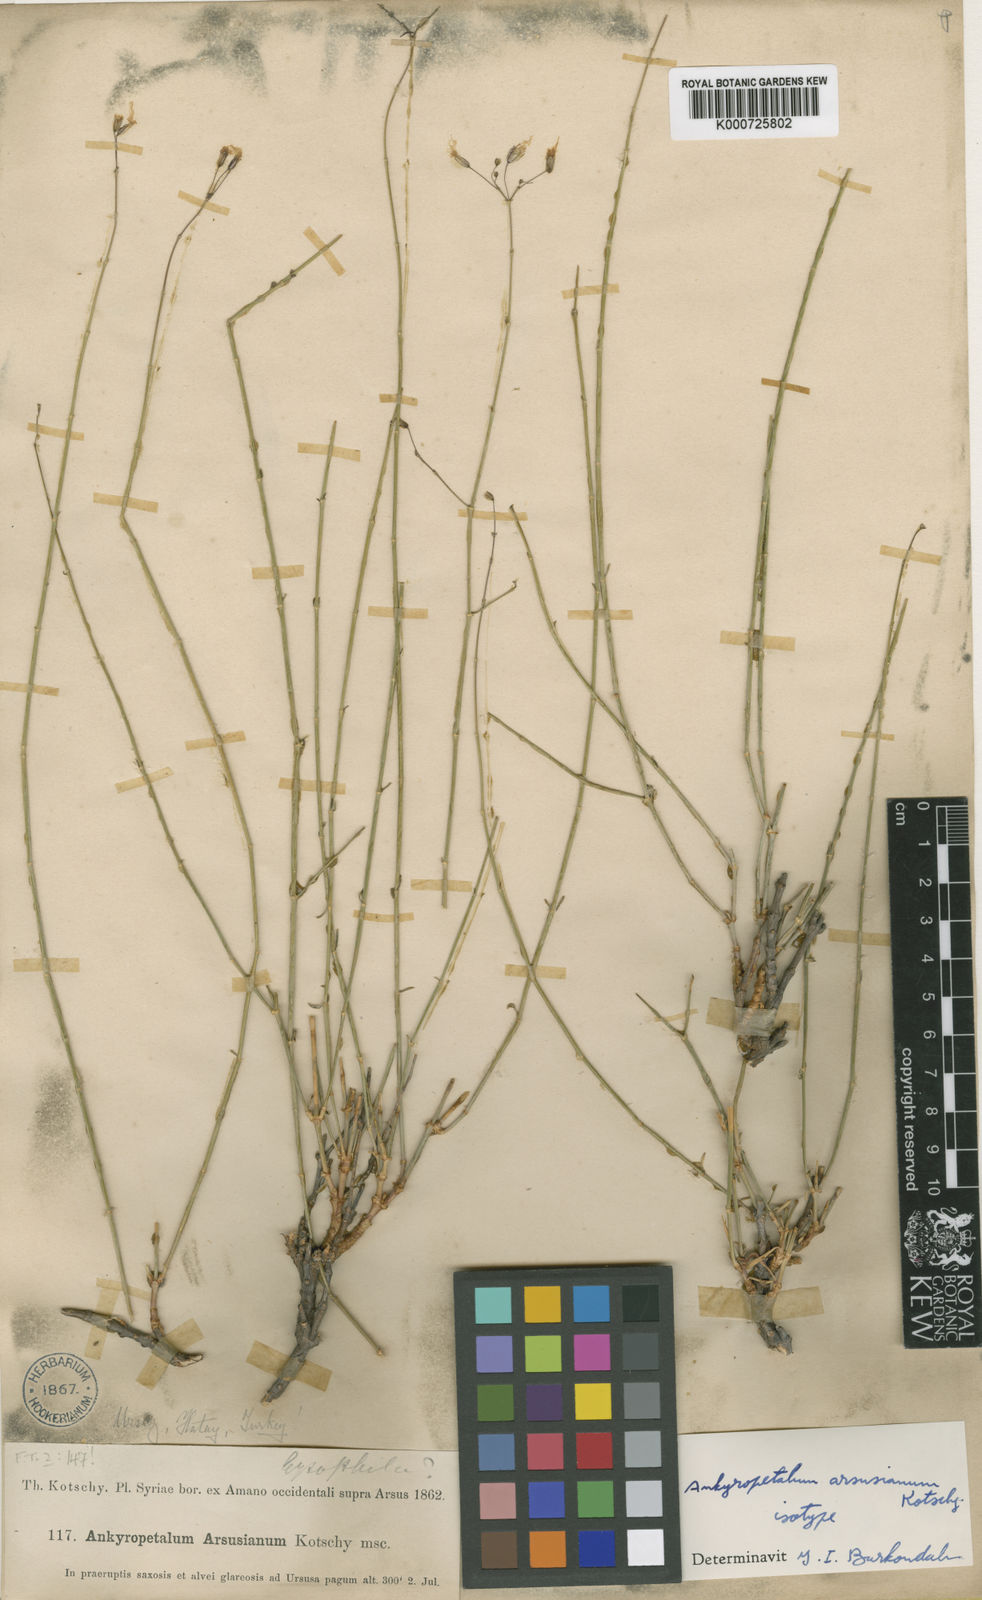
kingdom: Plantae
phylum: Tracheophyta
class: Magnoliopsida
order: Caryophyllales
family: Caryophyllaceae
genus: Ankyropetalum
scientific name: Ankyropetalum arsusianum
